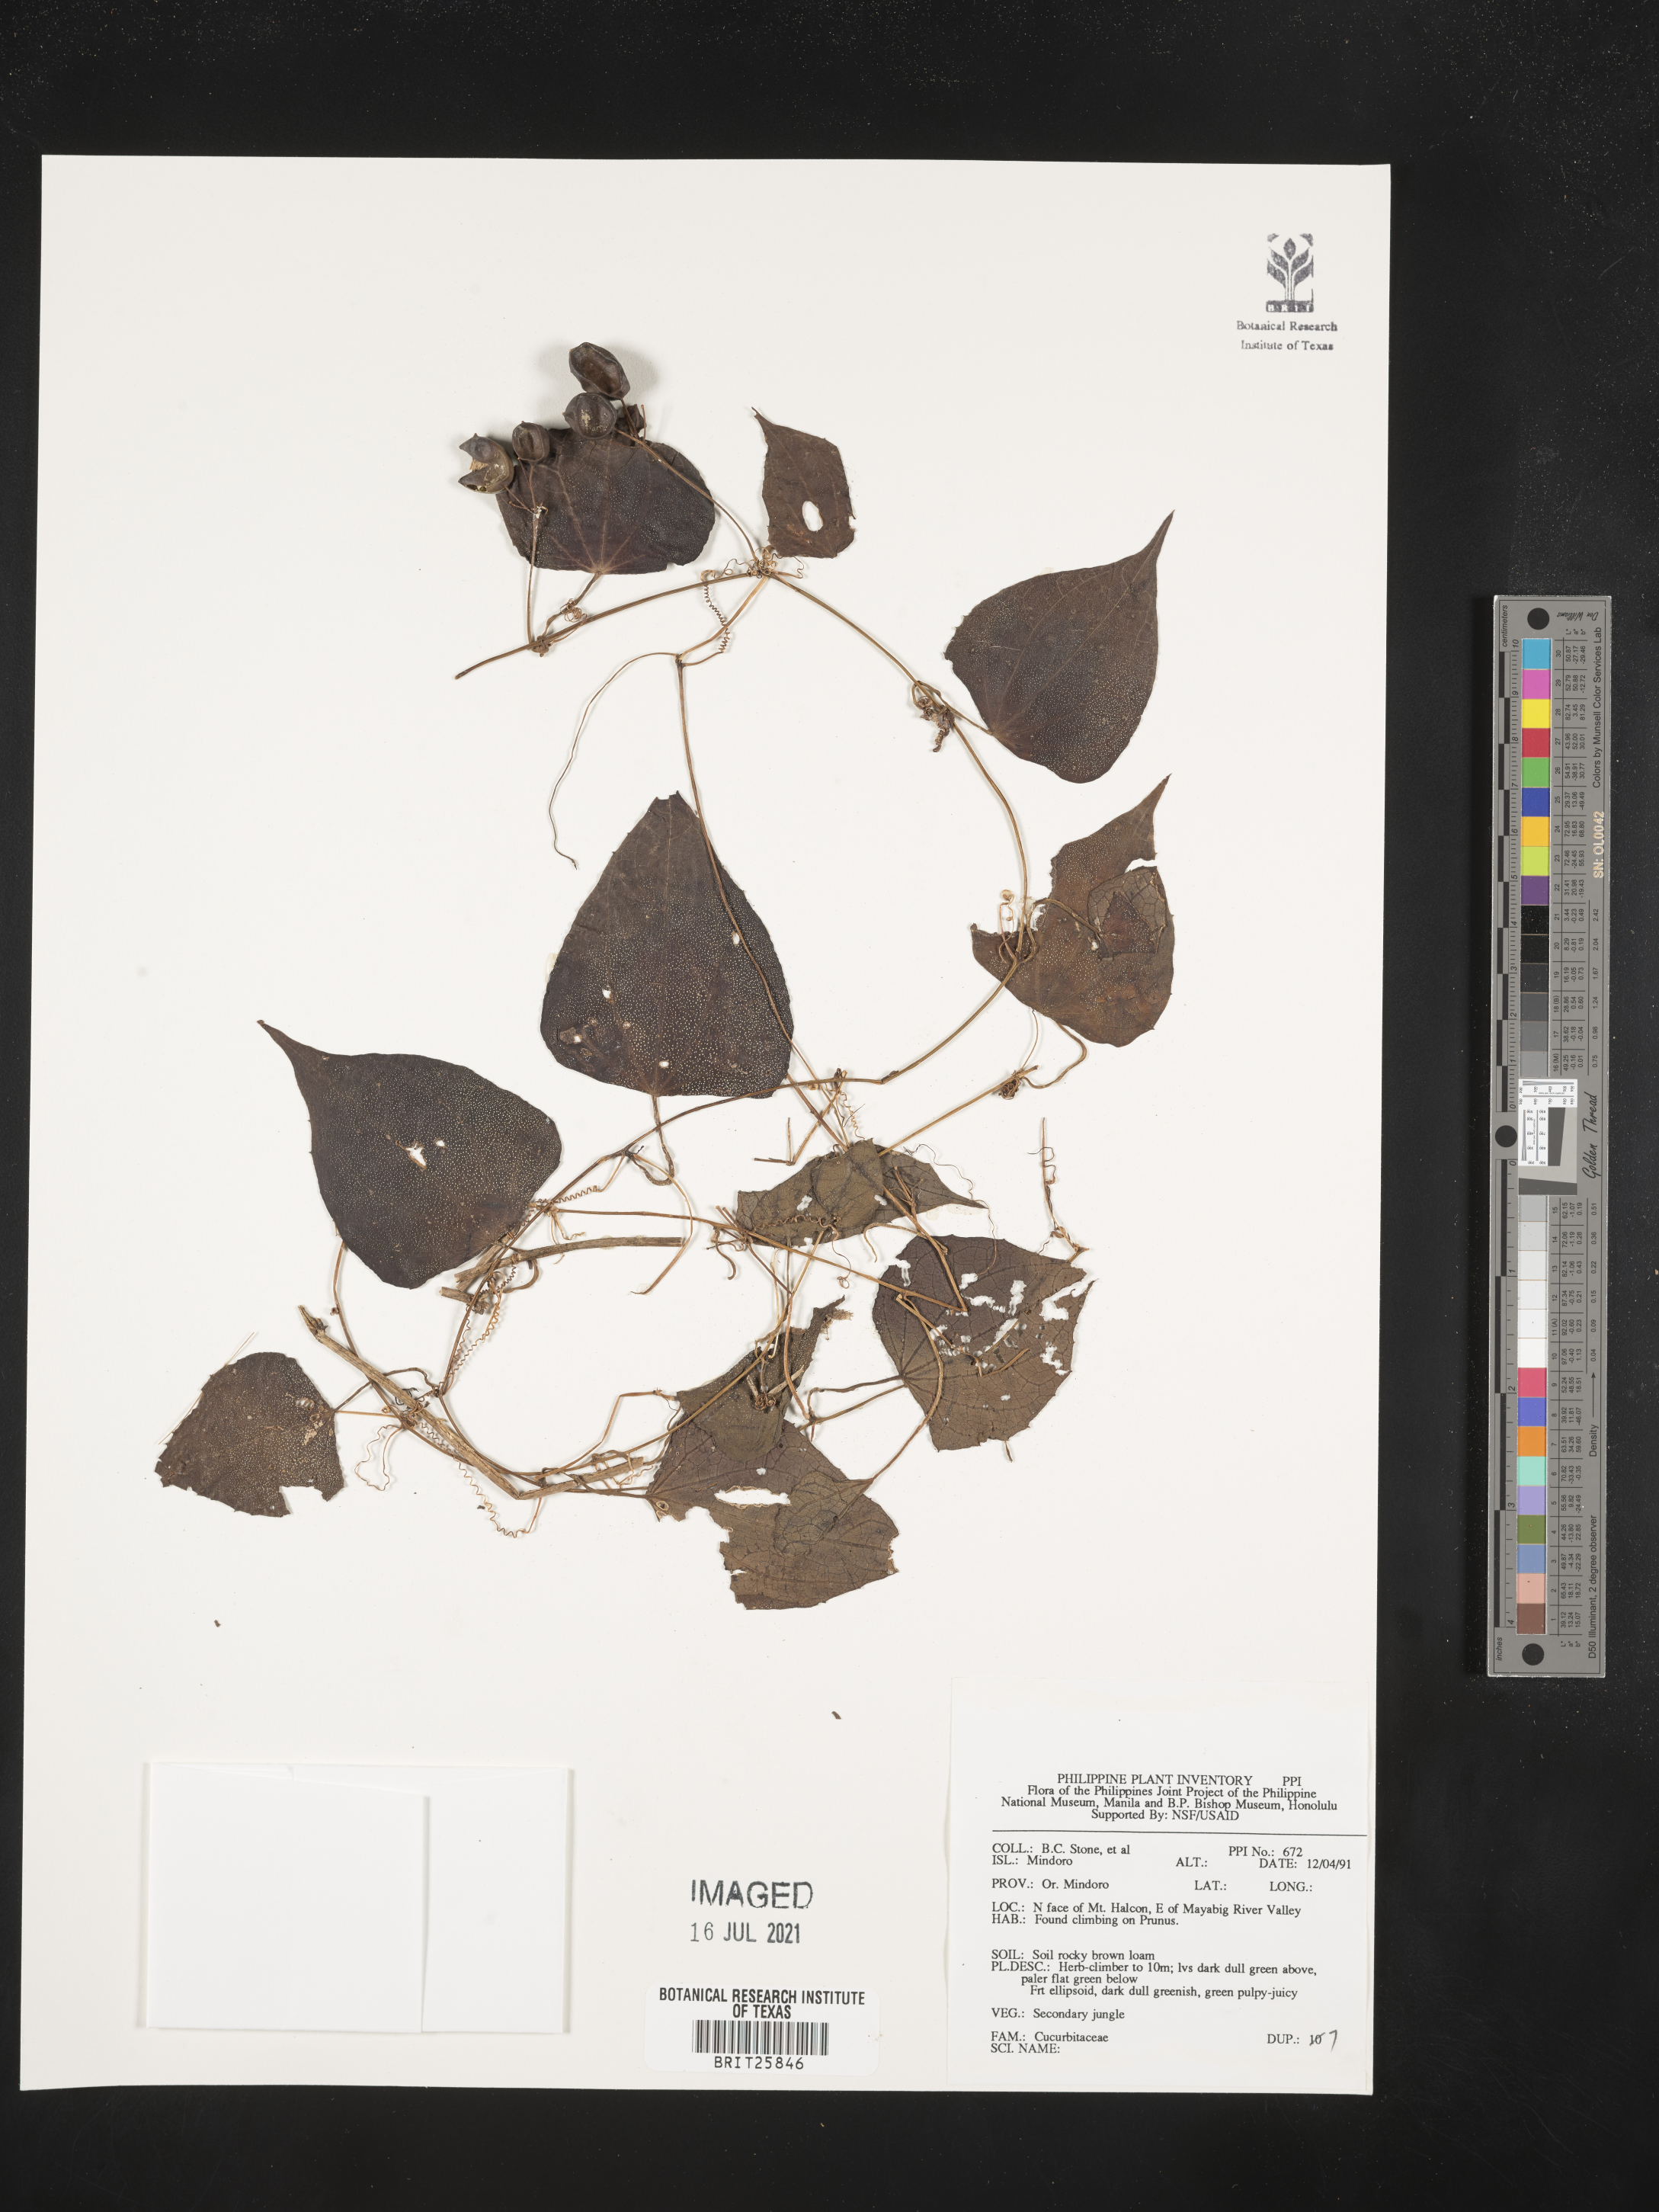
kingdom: Plantae
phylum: Tracheophyta
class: Magnoliopsida
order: Cucurbitales
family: Cucurbitaceae
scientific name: Cucurbitaceae
